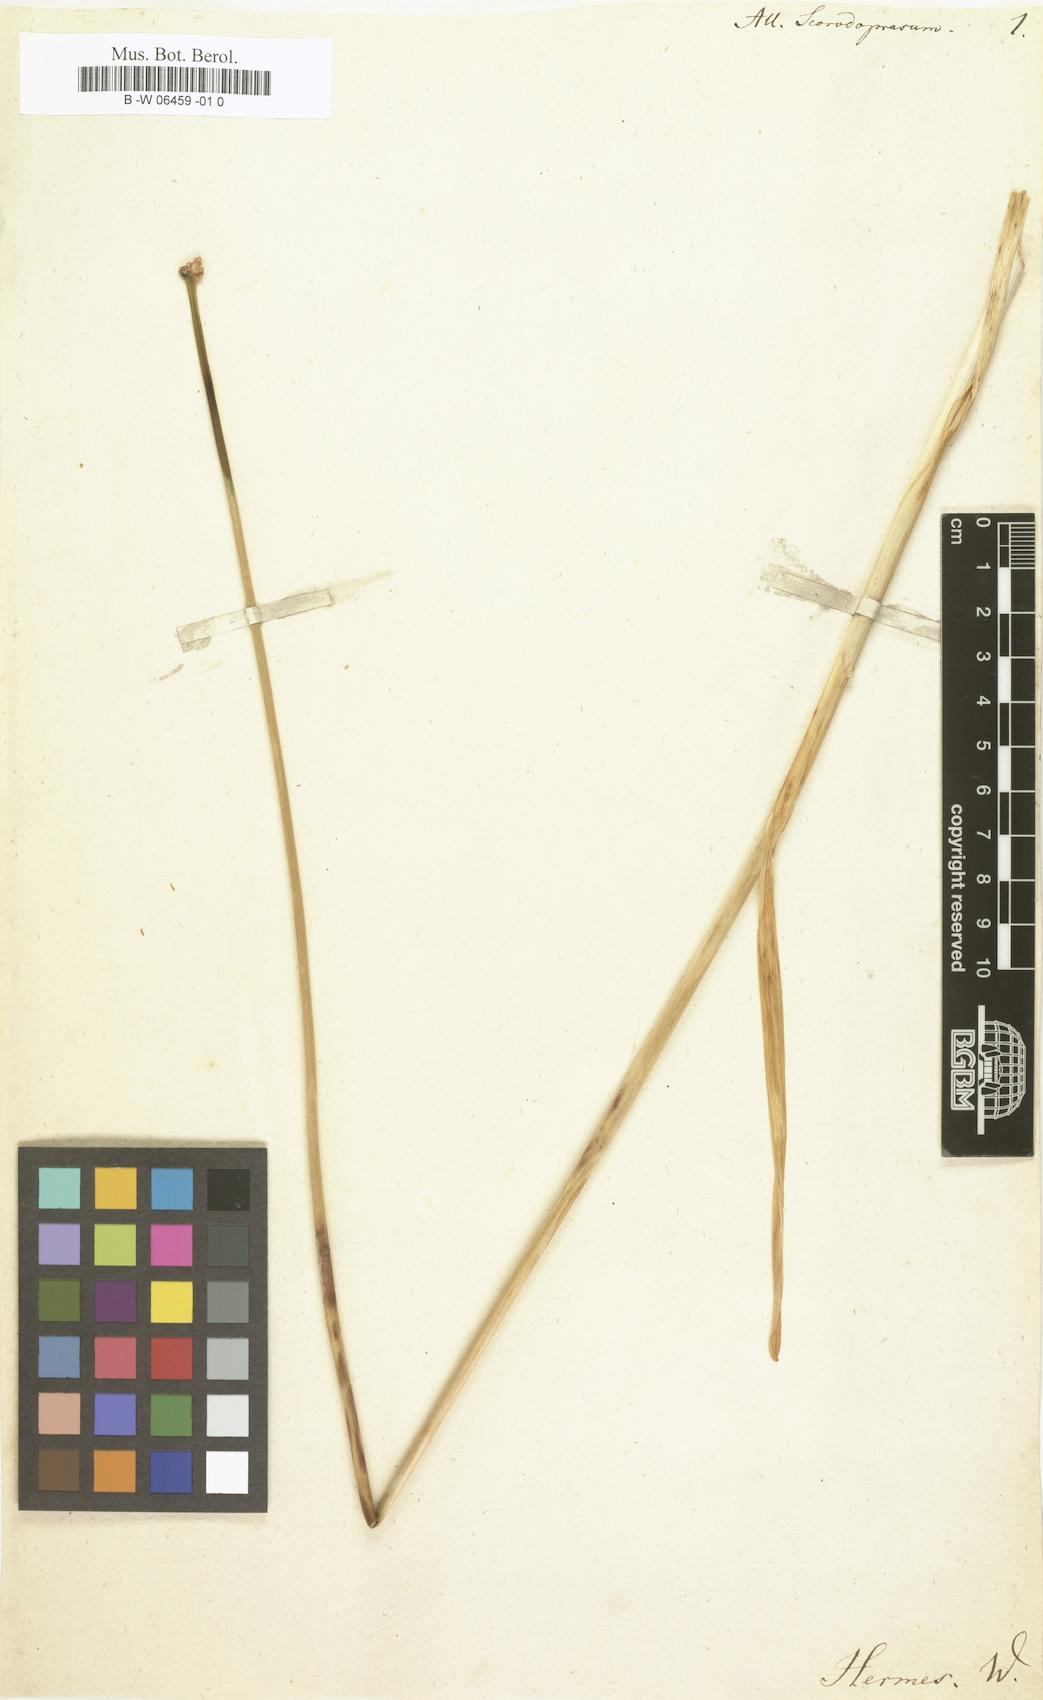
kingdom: Plantae
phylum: Tracheophyta
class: Liliopsida
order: Asparagales
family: Amaryllidaceae
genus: Allium
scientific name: Allium scorodoprasum
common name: Sand leek
